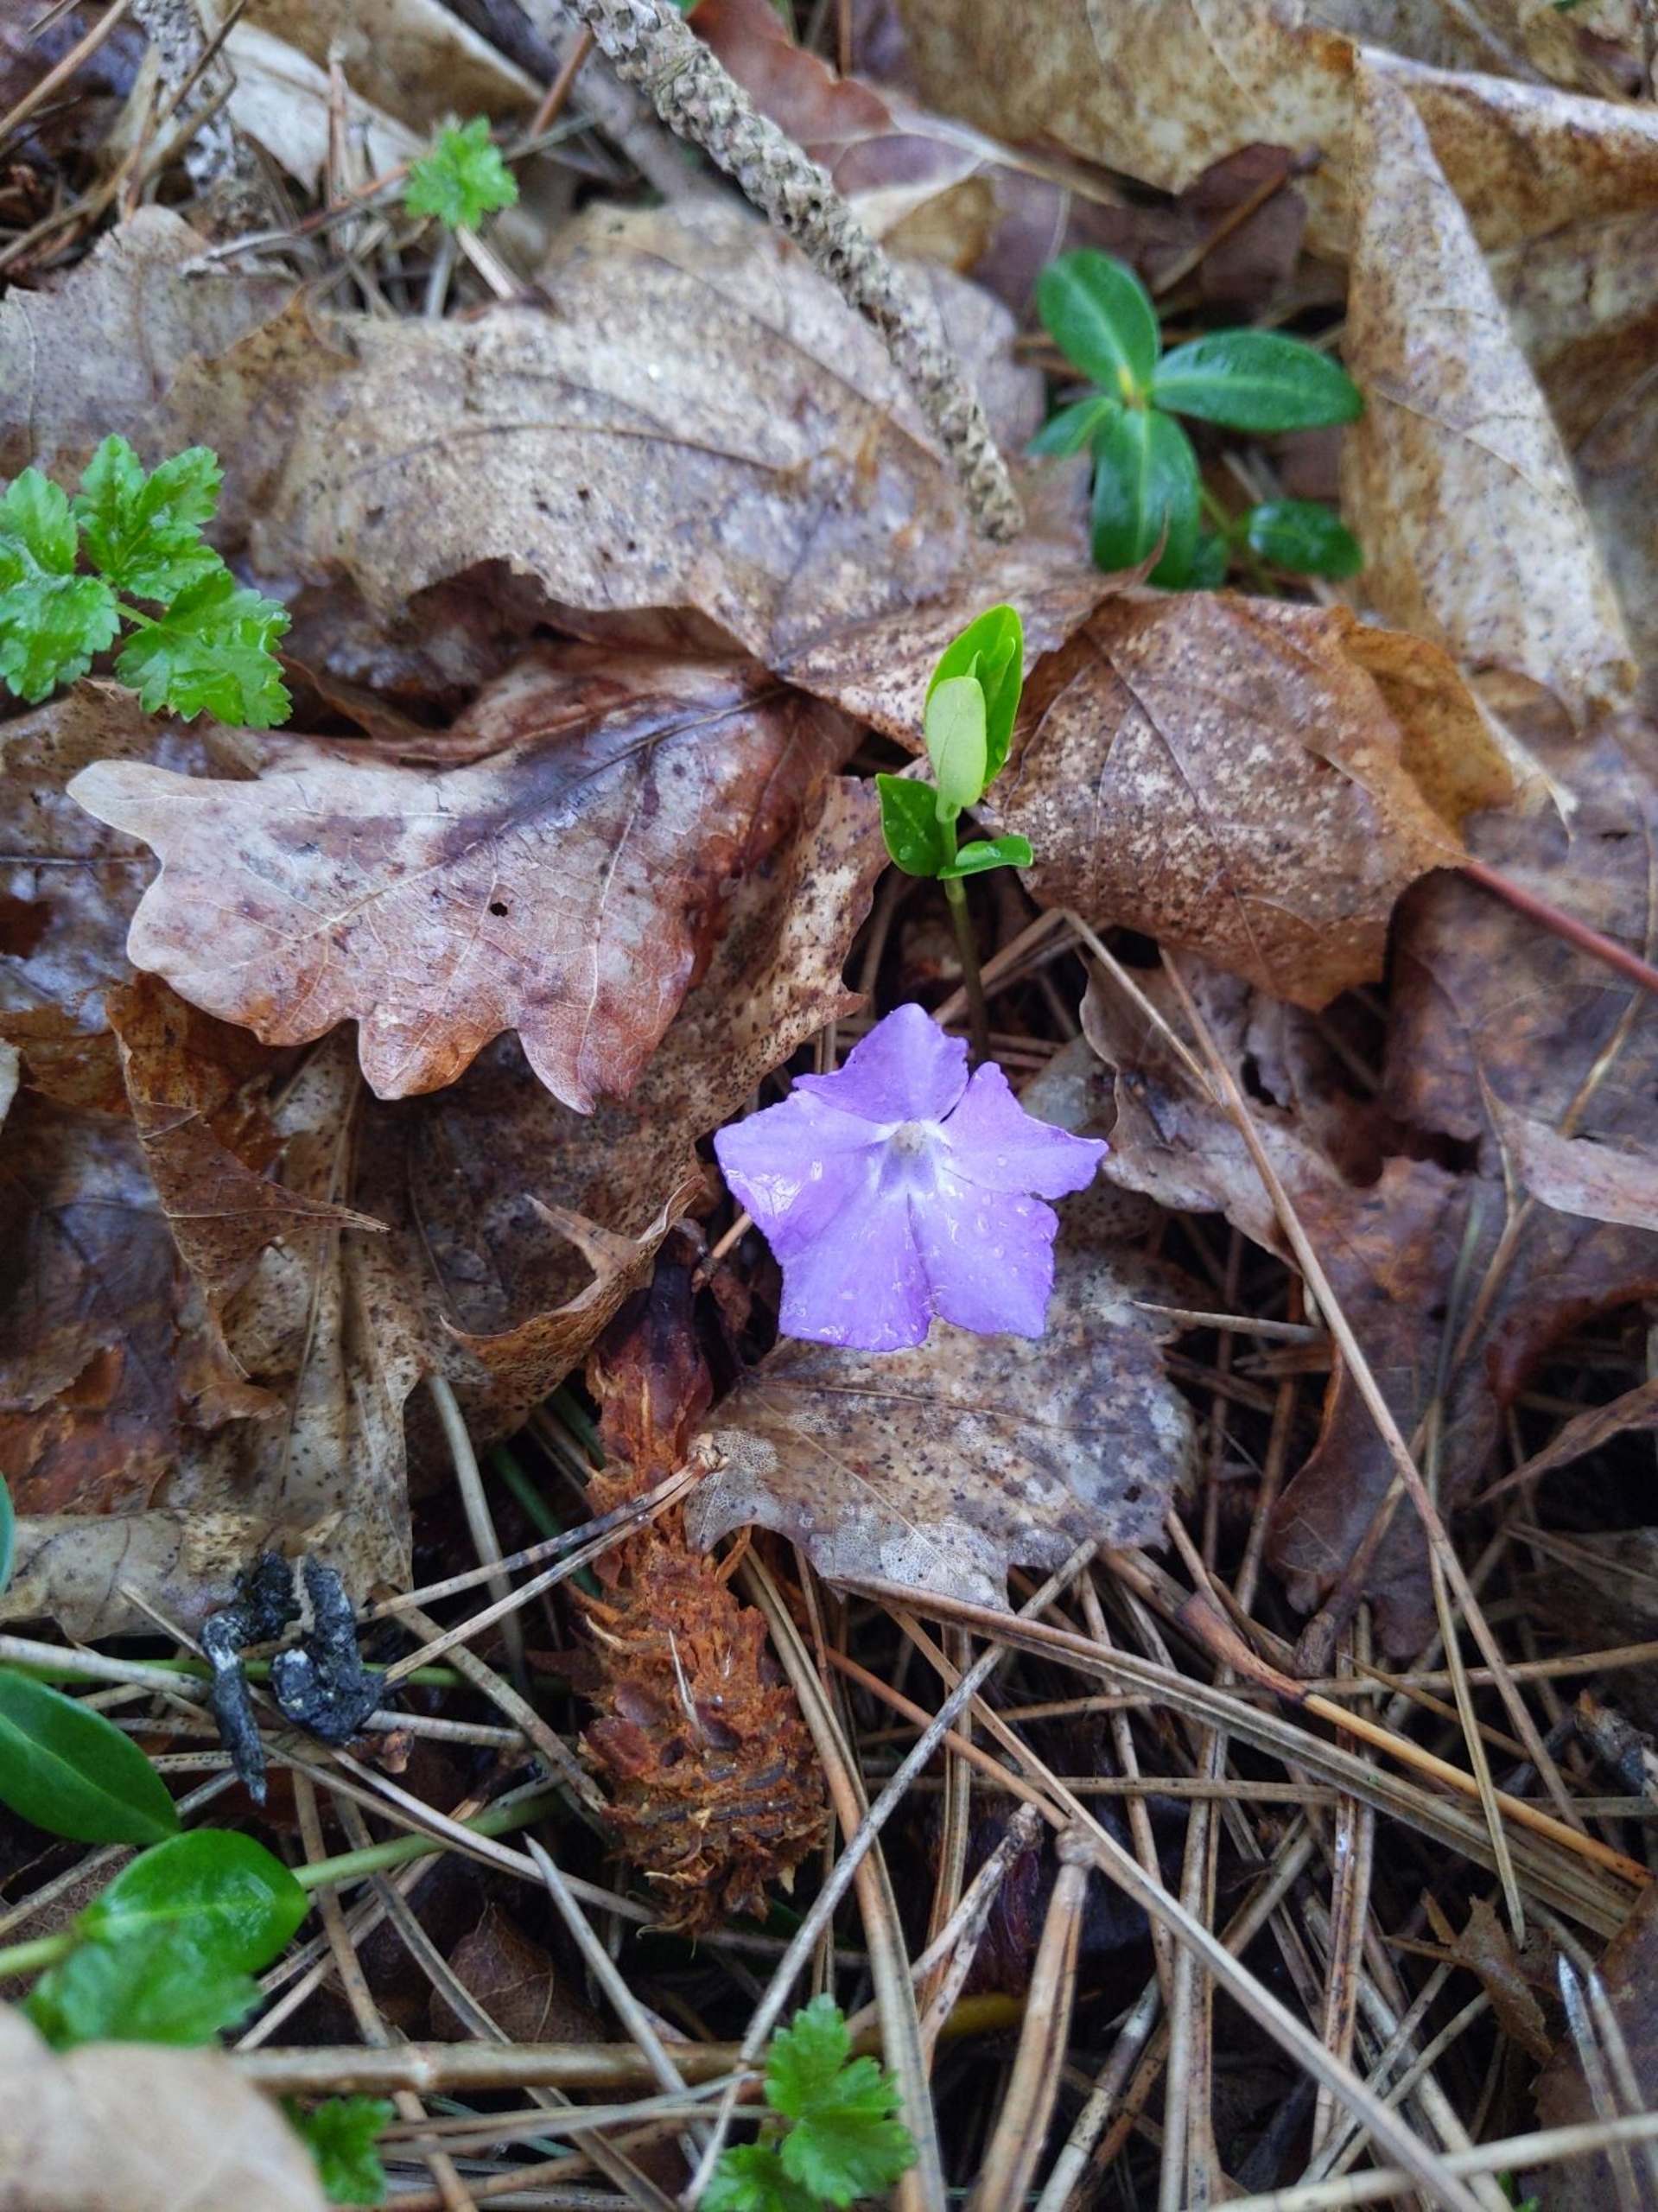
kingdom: Plantae
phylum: Tracheophyta
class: Magnoliopsida
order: Gentianales
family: Apocynaceae
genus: Vinca
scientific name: Vinca minor
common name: Liden singrøn
